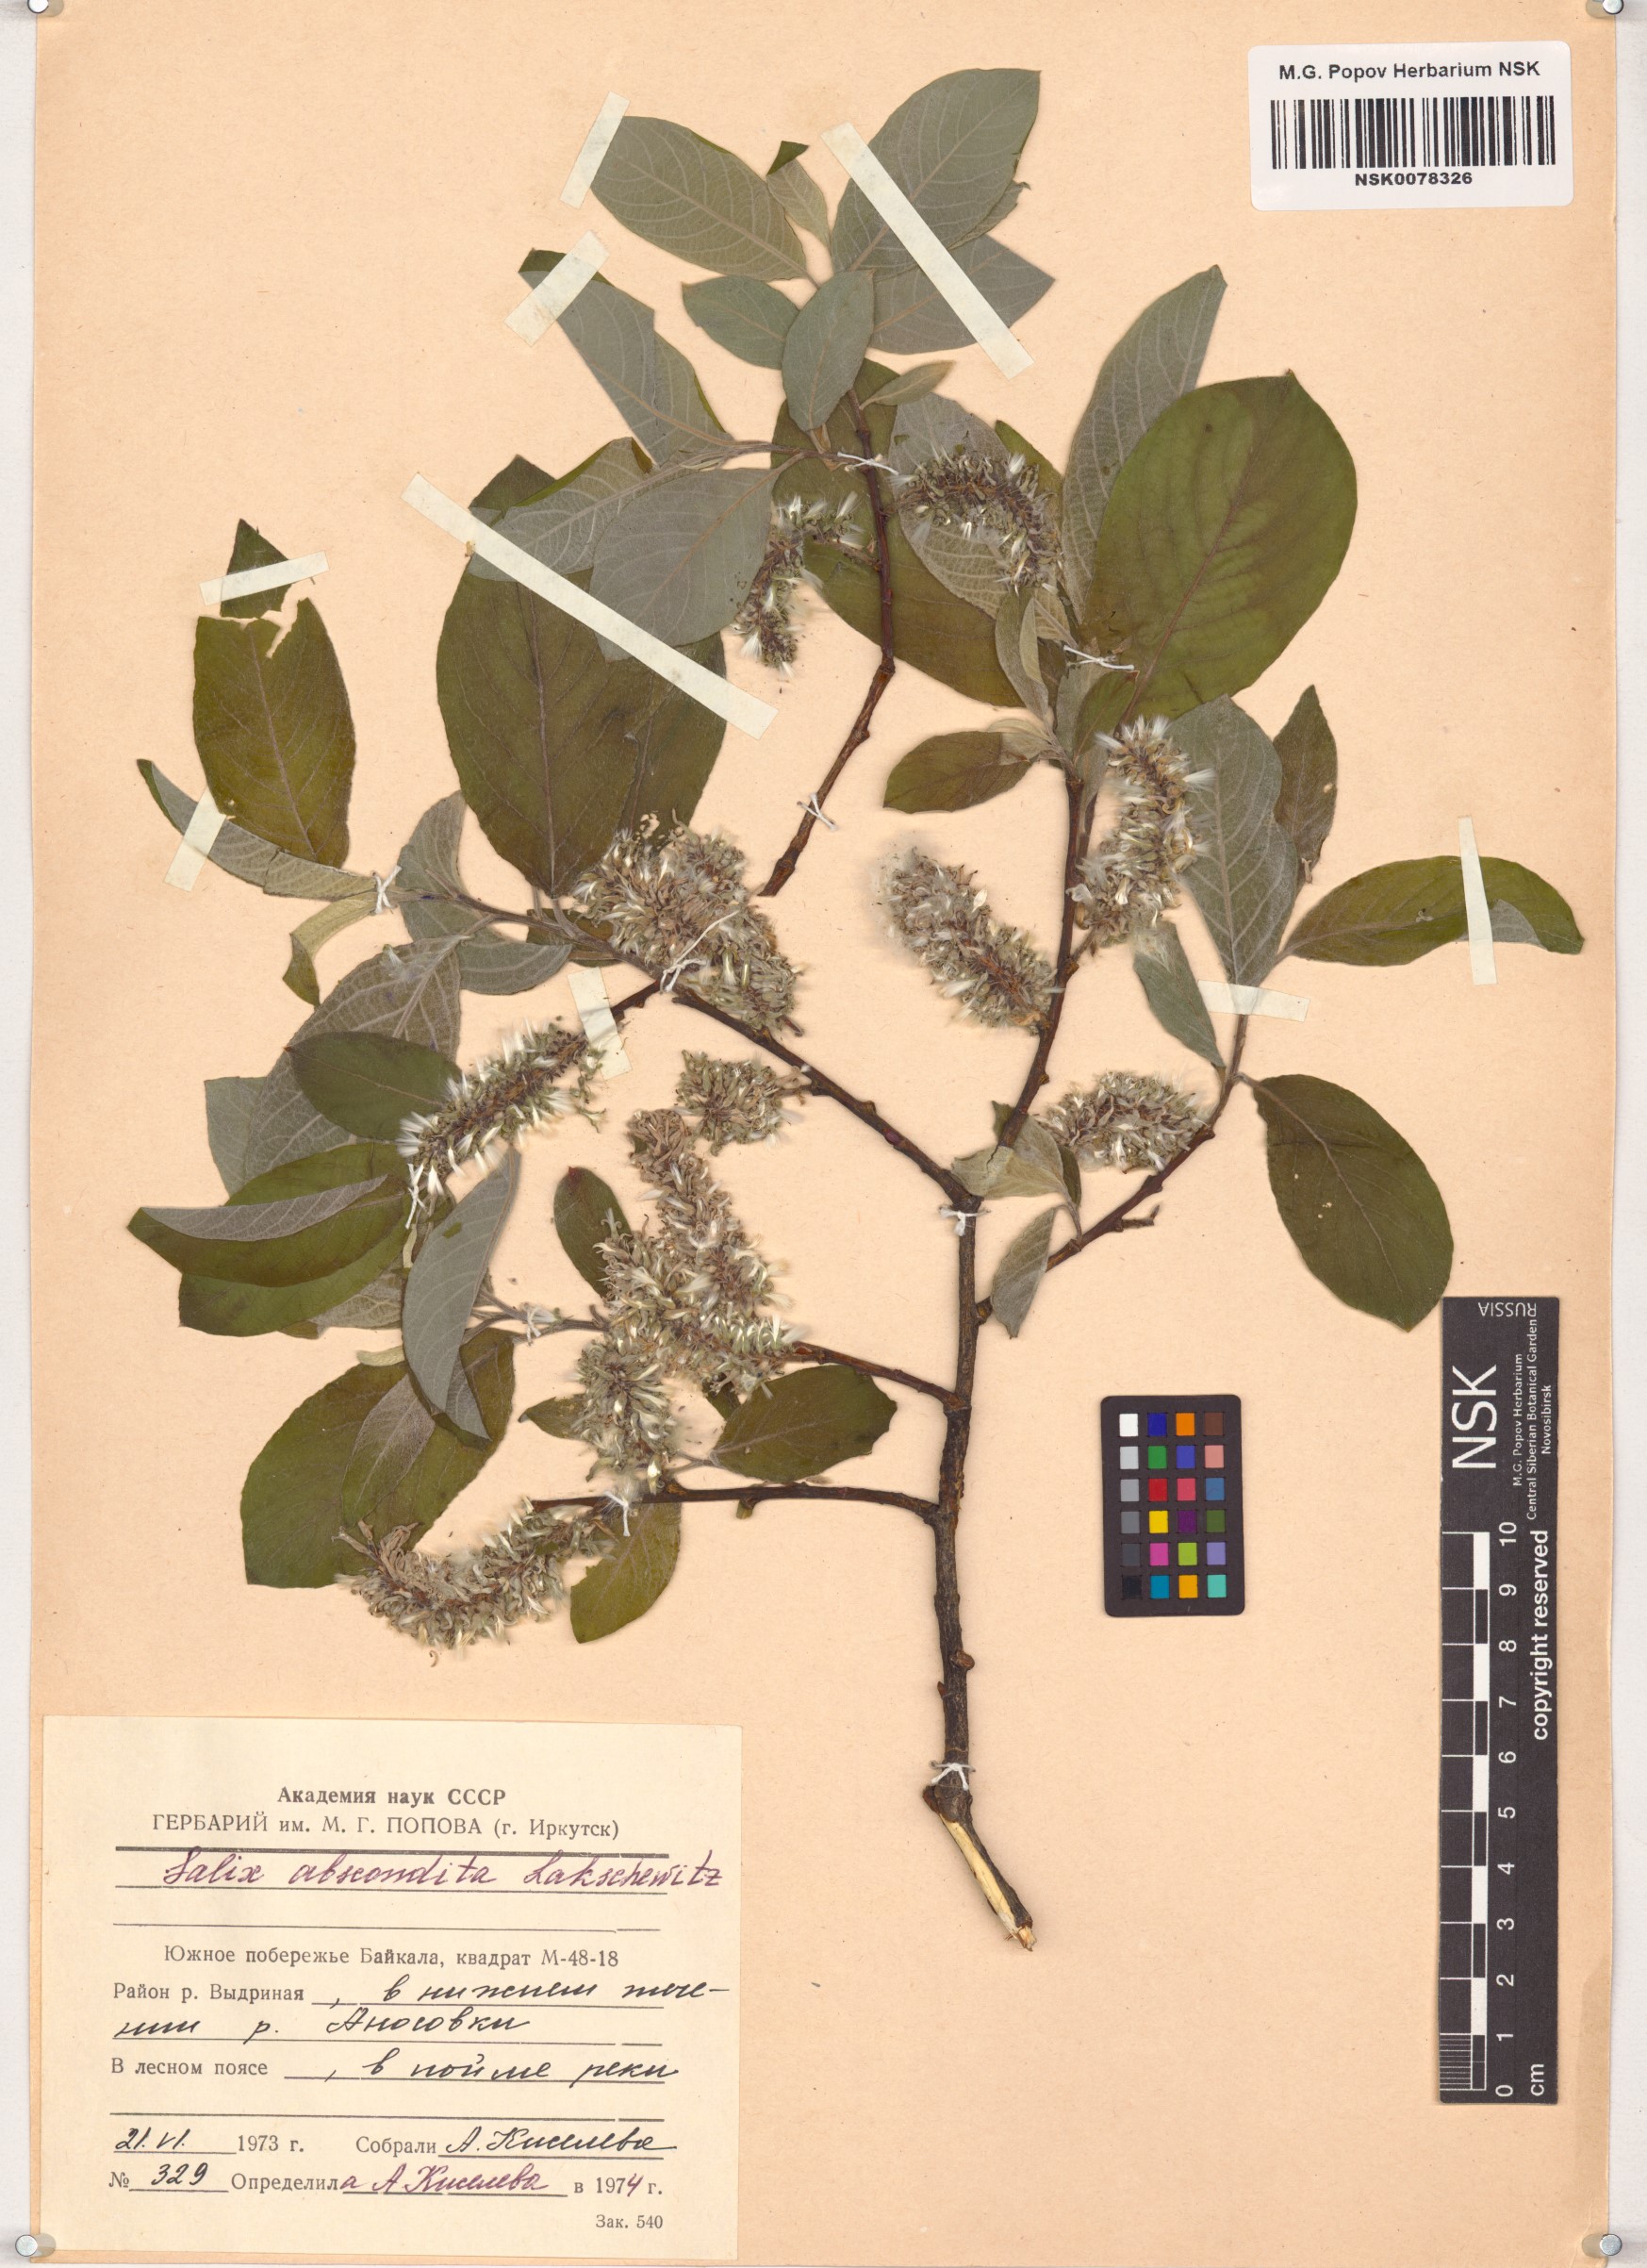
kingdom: Plantae
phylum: Tracheophyta
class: Magnoliopsida
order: Malpighiales
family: Salicaceae
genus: Salix
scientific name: Salix abscondita
